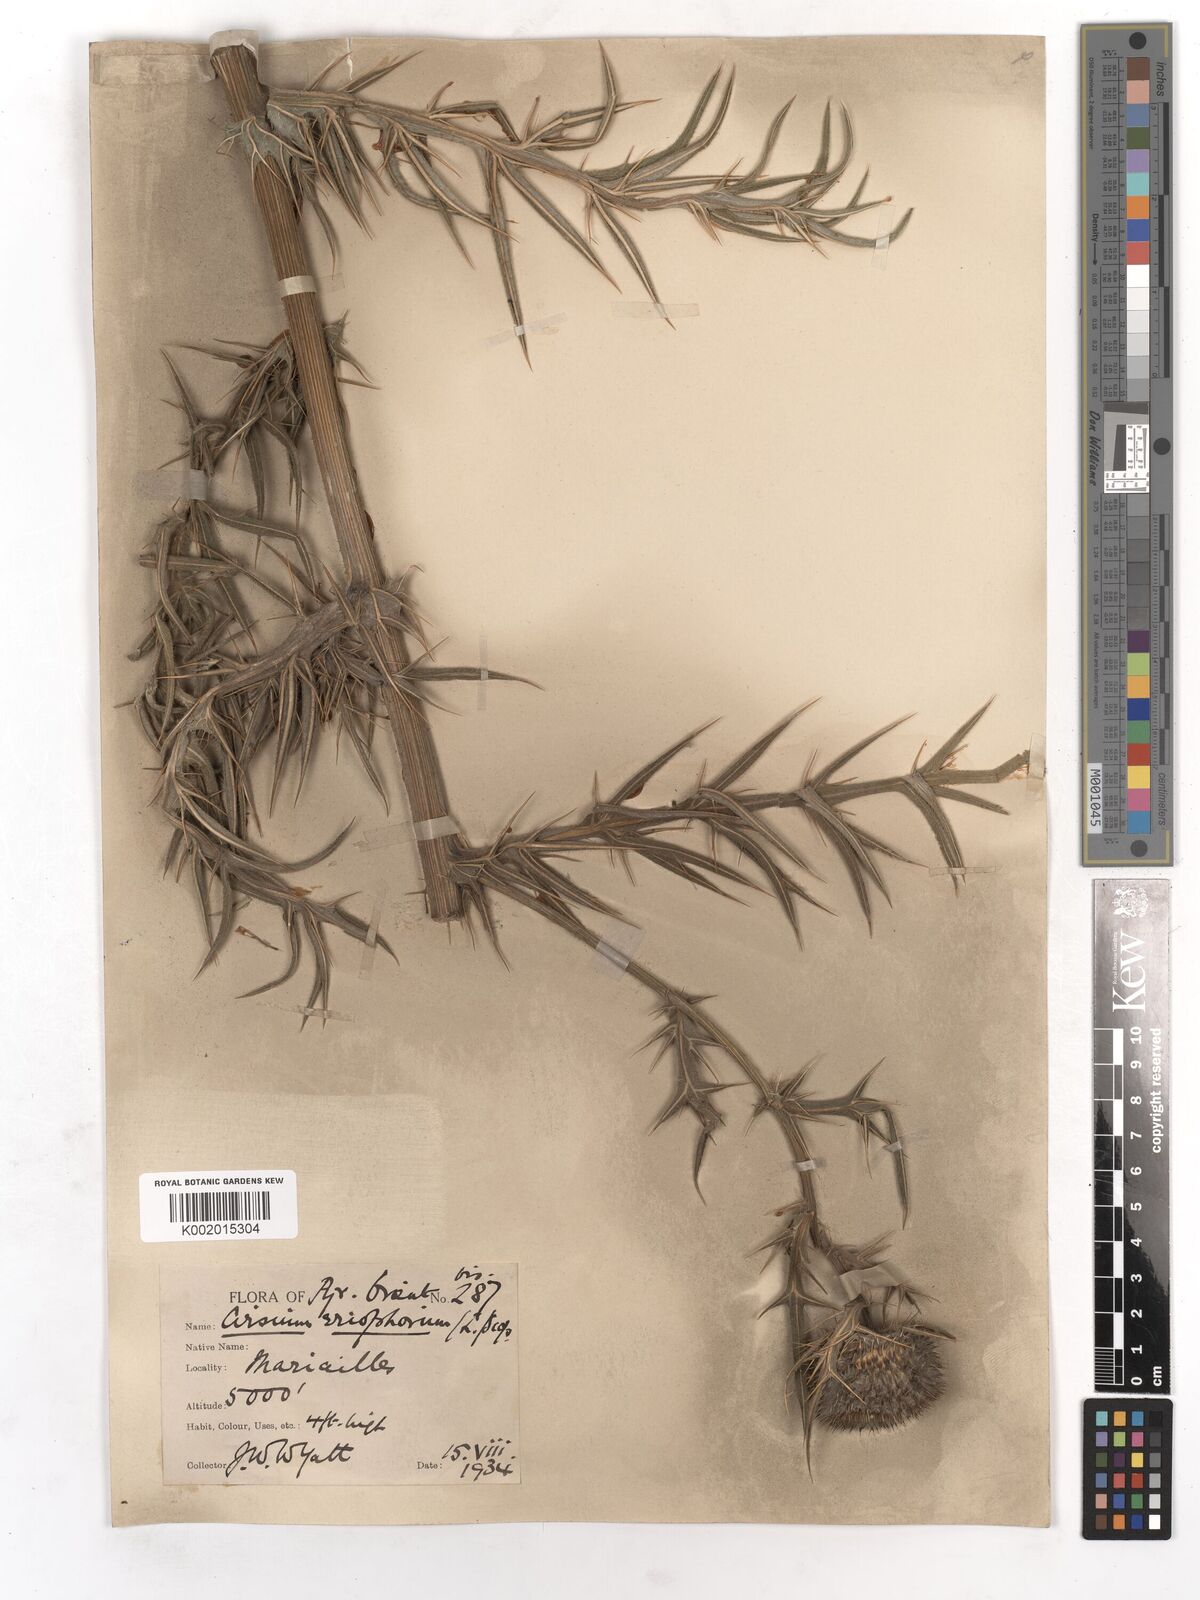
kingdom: Plantae
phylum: Tracheophyta
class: Magnoliopsida
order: Asterales
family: Asteraceae
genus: Lophiolepis
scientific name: Lophiolepis eriophora
